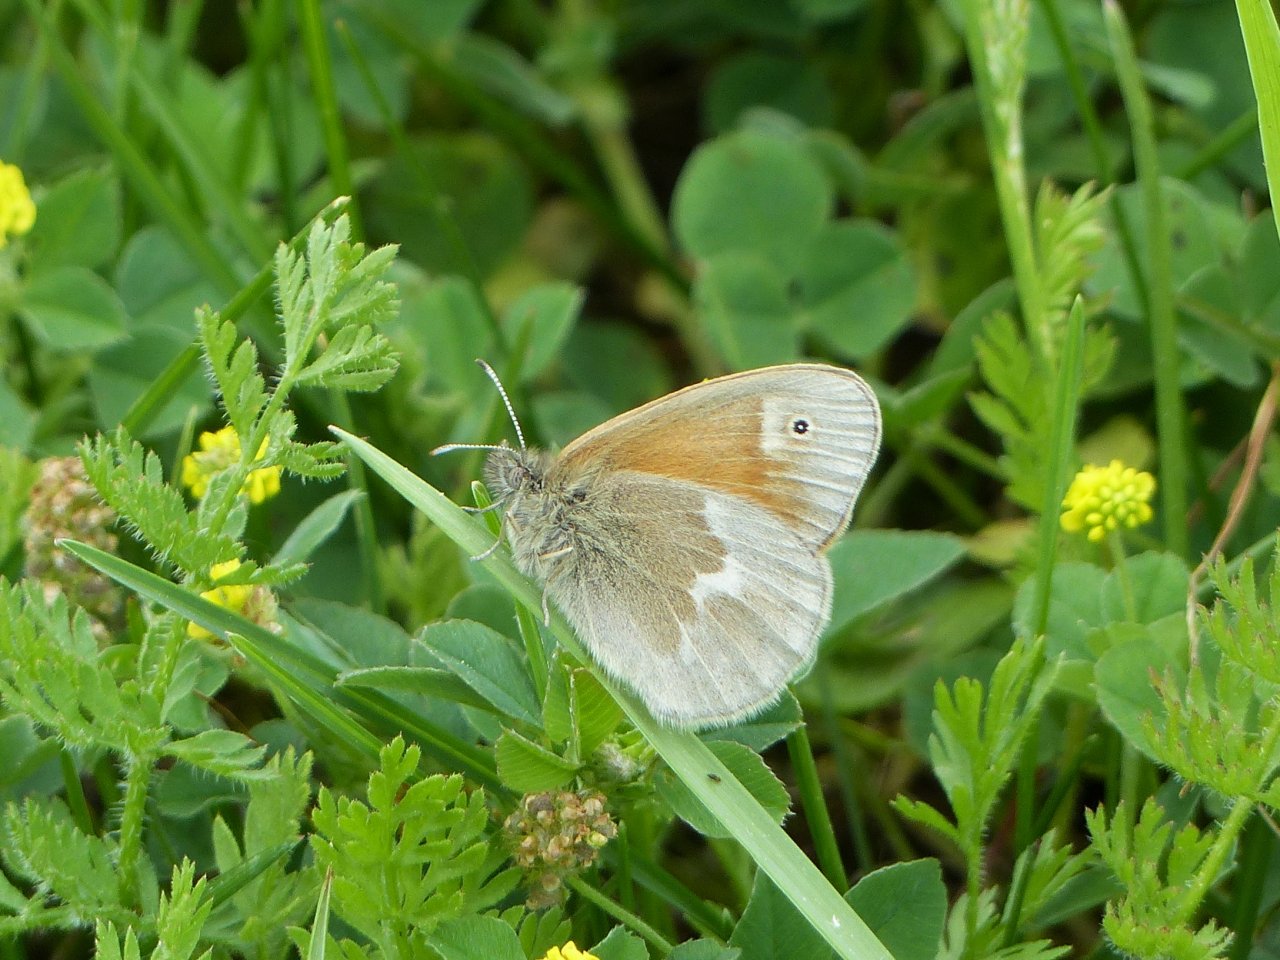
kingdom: Animalia
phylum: Arthropoda
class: Insecta
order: Lepidoptera
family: Nymphalidae
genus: Coenonympha
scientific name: Coenonympha tullia
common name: Large Heath
